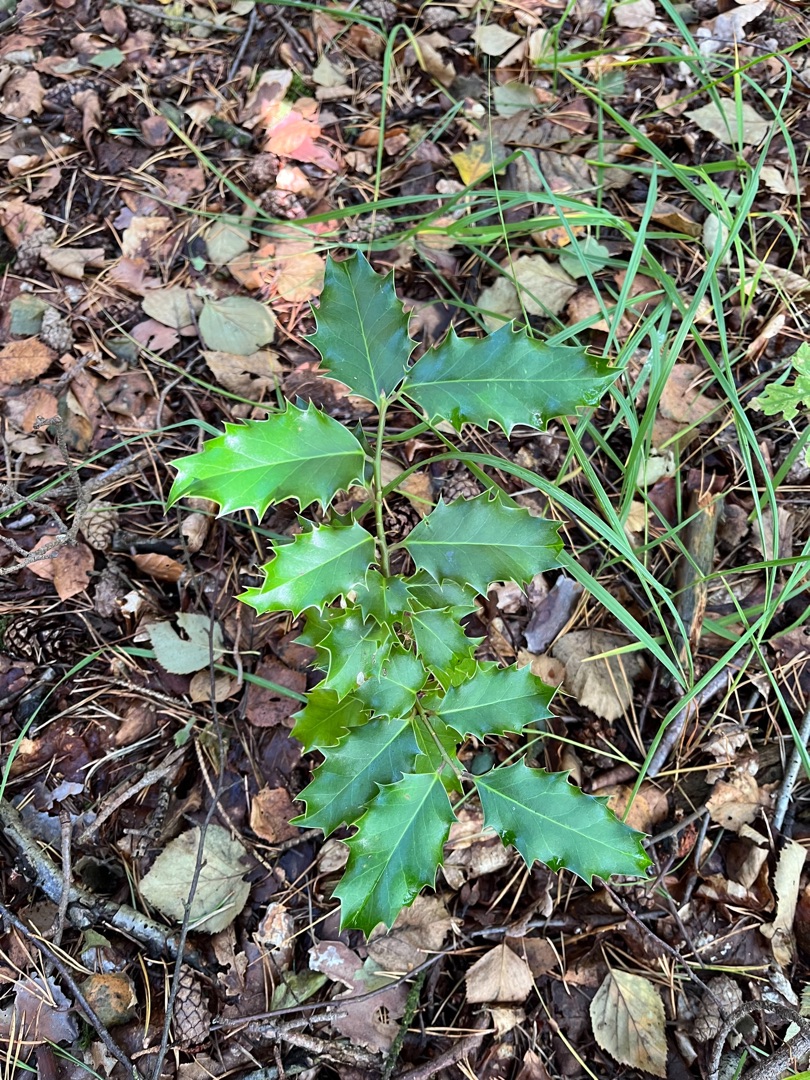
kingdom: Plantae
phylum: Tracheophyta
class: Magnoliopsida
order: Aquifoliales
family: Aquifoliaceae
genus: Ilex
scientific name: Ilex aquifolium
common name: Kristtorn
